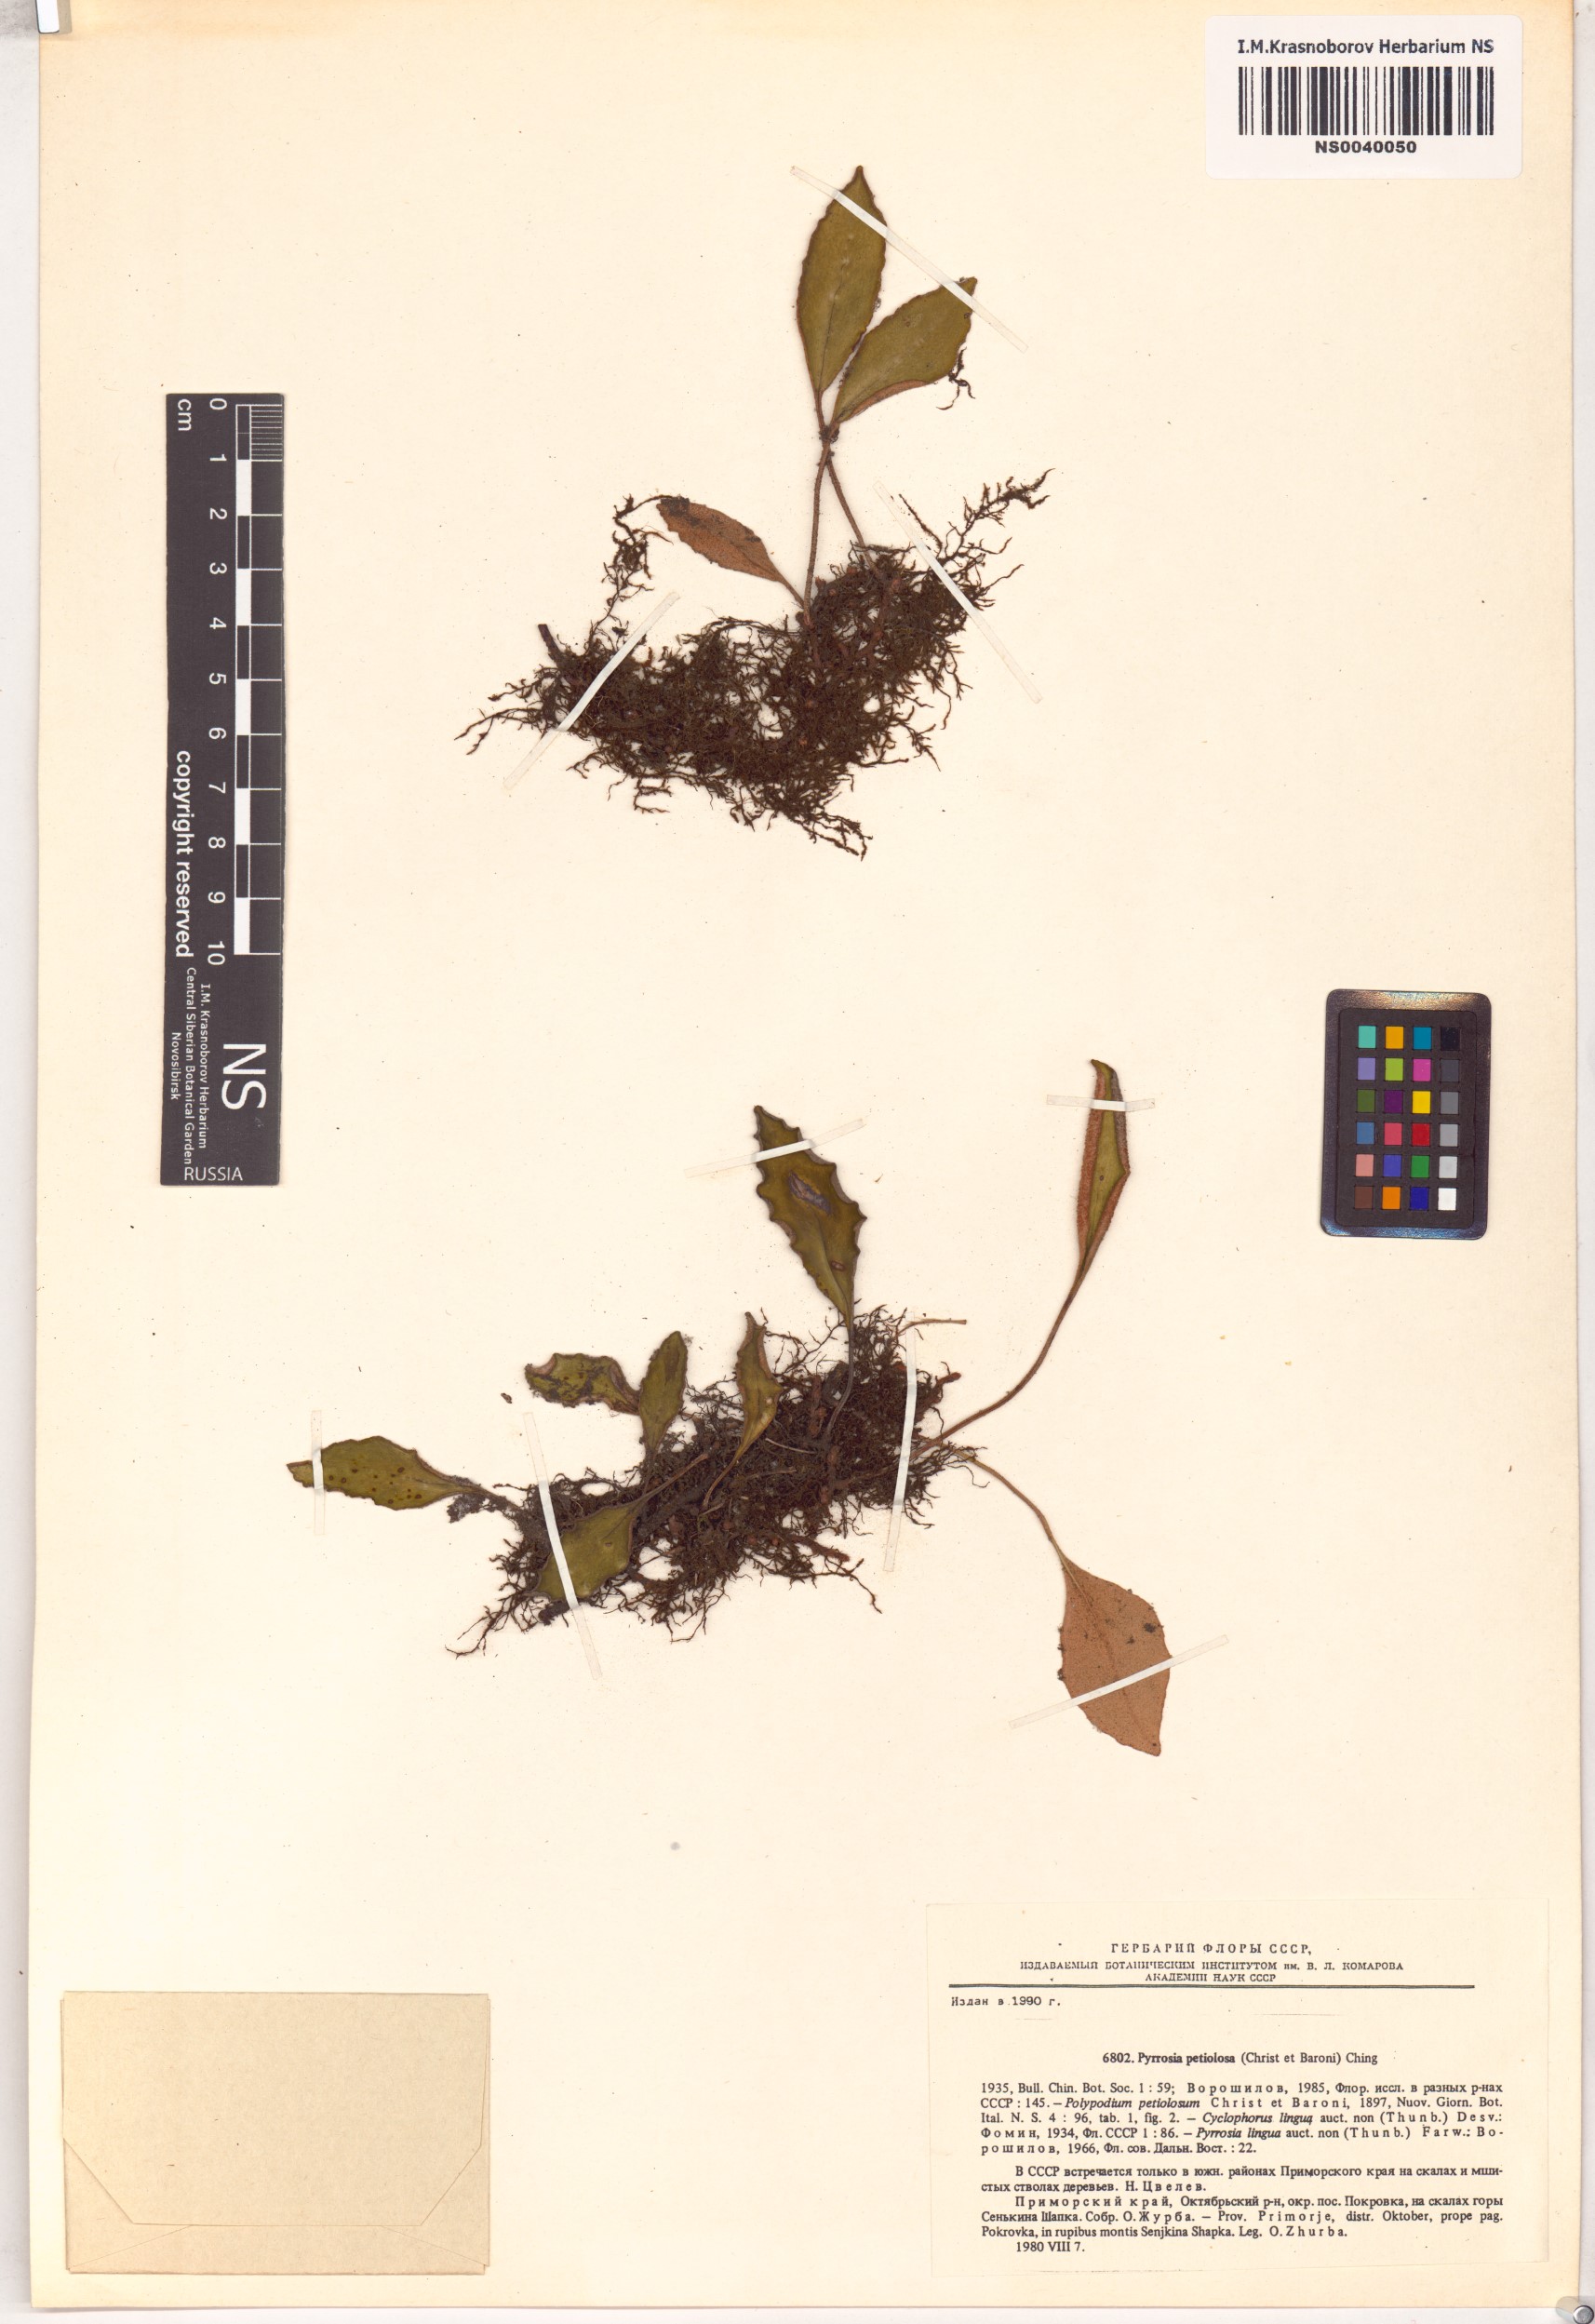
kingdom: Plantae
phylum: Tracheophyta
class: Polypodiopsida
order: Polypodiales
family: Polypodiaceae
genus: Pyrrosia
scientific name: Pyrrosia petiolosa
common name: Pyrrosia
